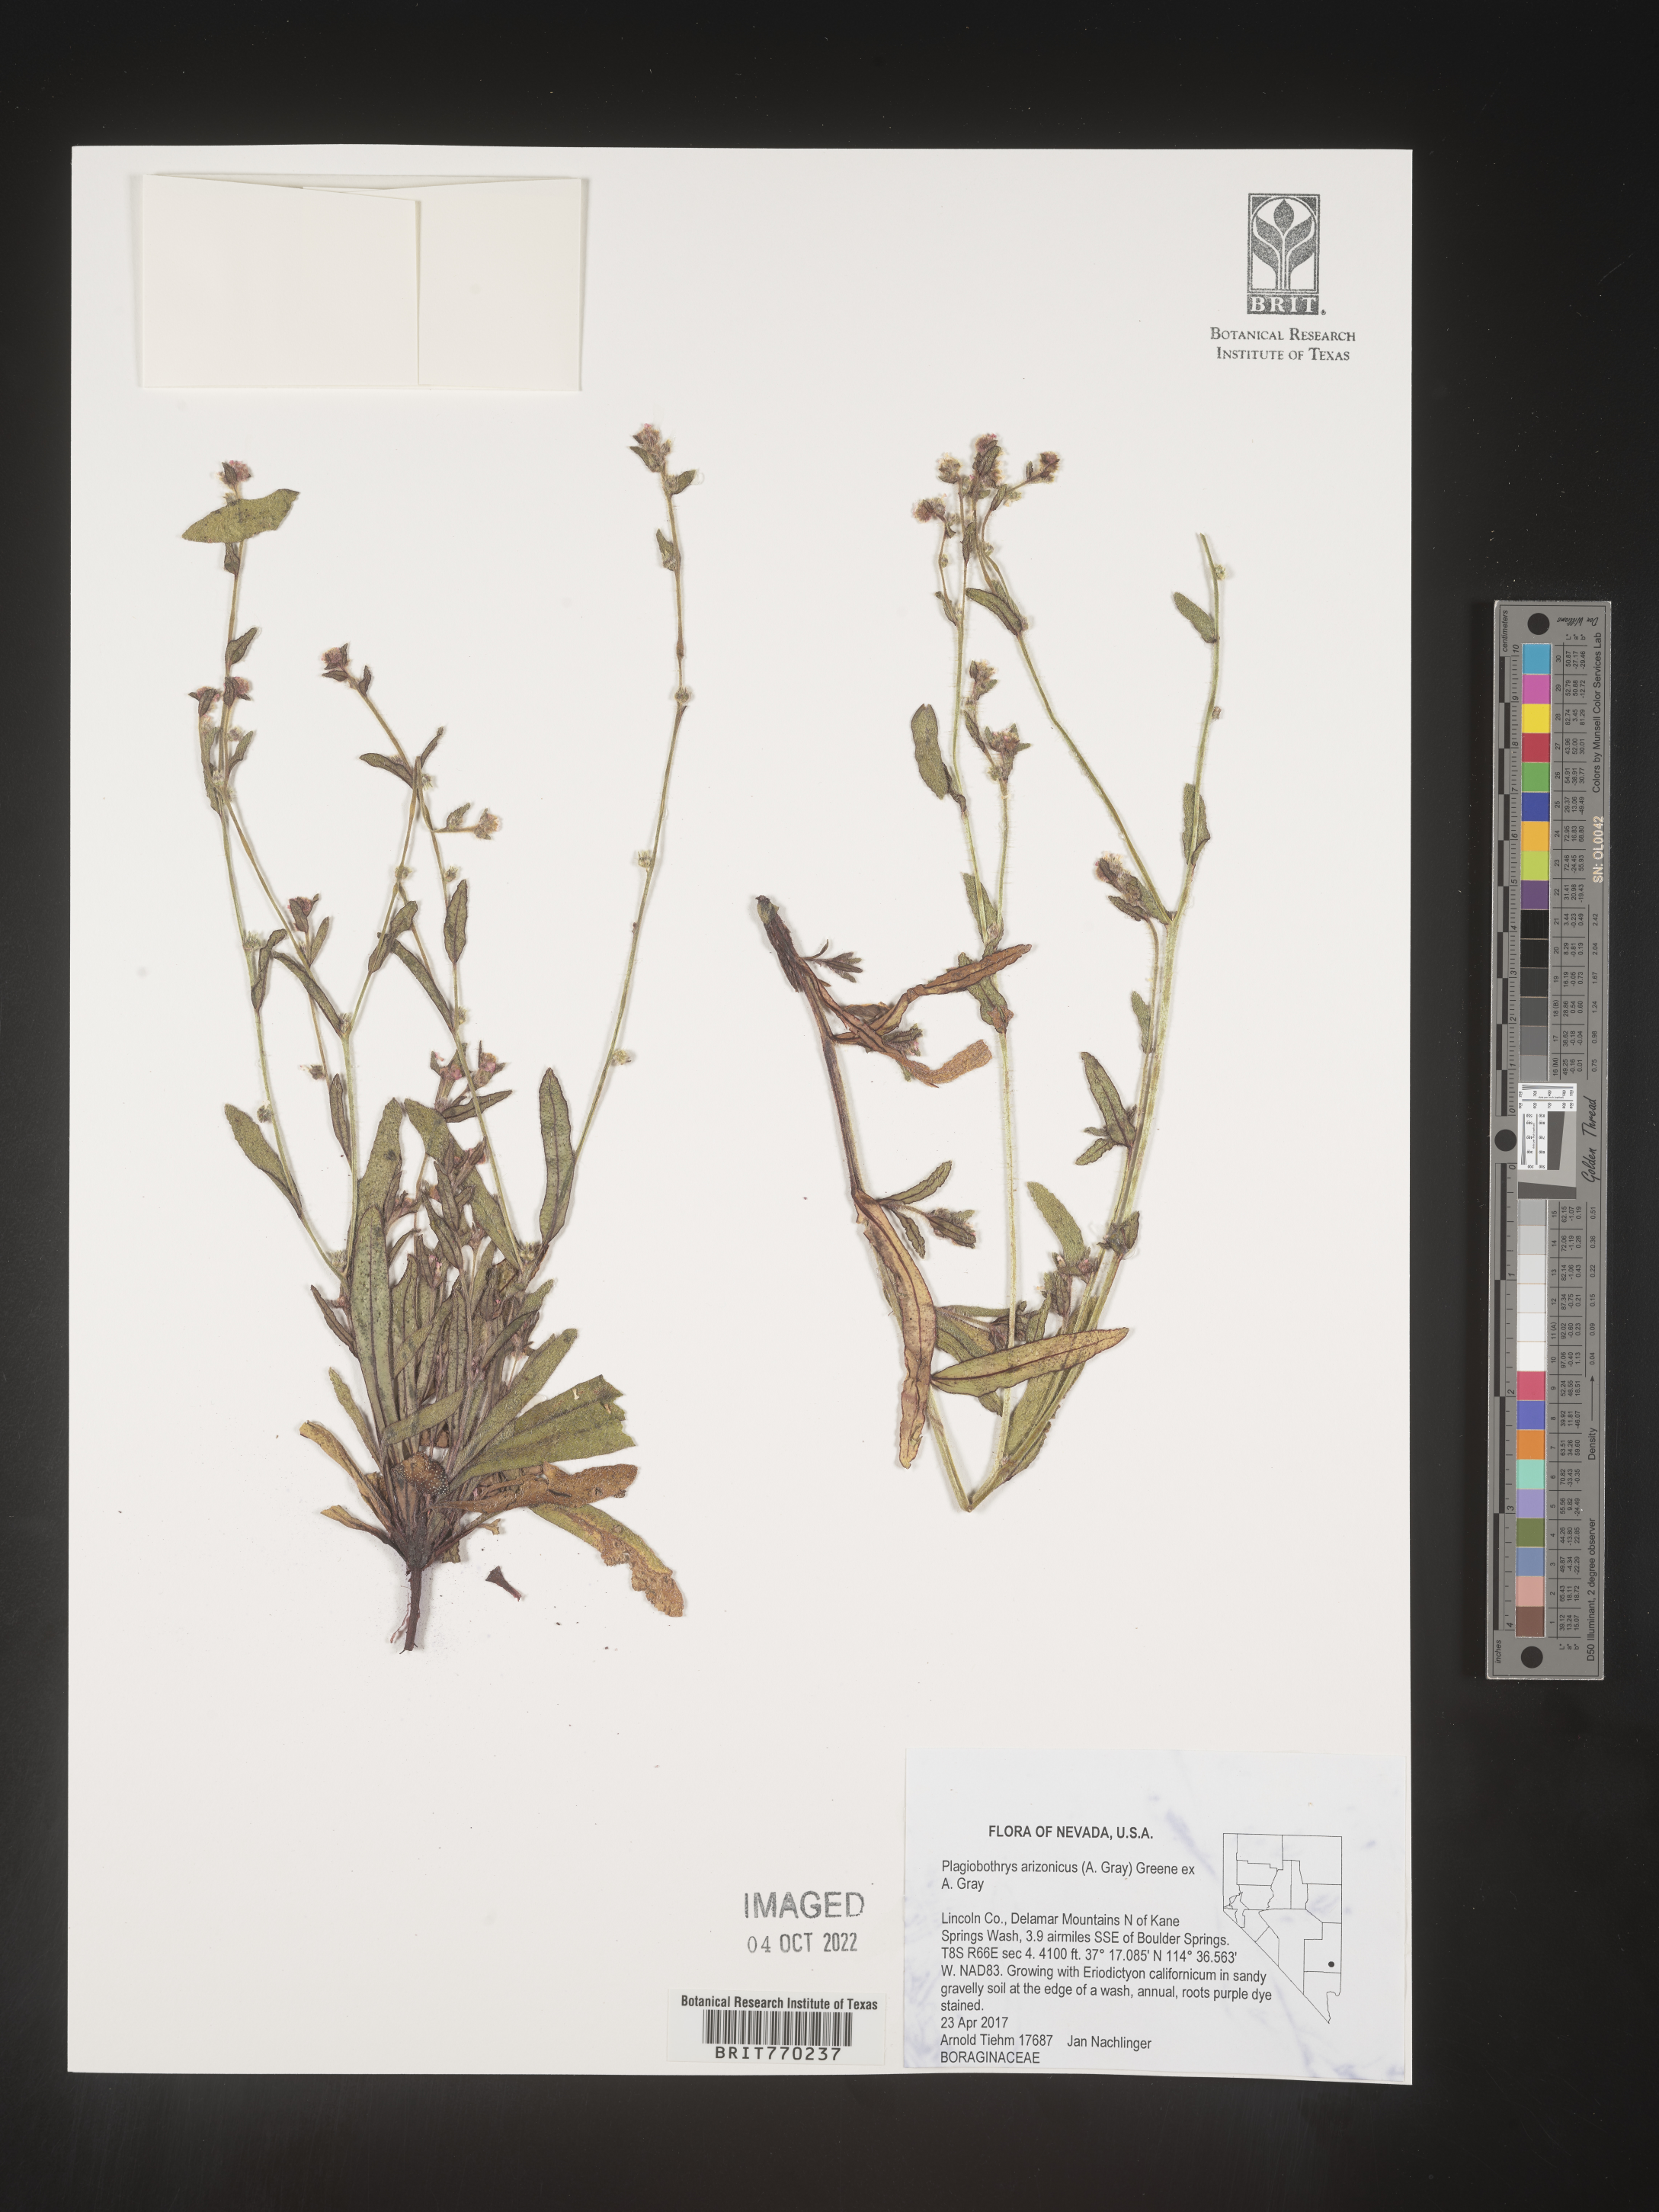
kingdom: Plantae
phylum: Tracheophyta
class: Magnoliopsida
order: Boraginales
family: Boraginaceae
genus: Plagiobothrys
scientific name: Plagiobothrys
